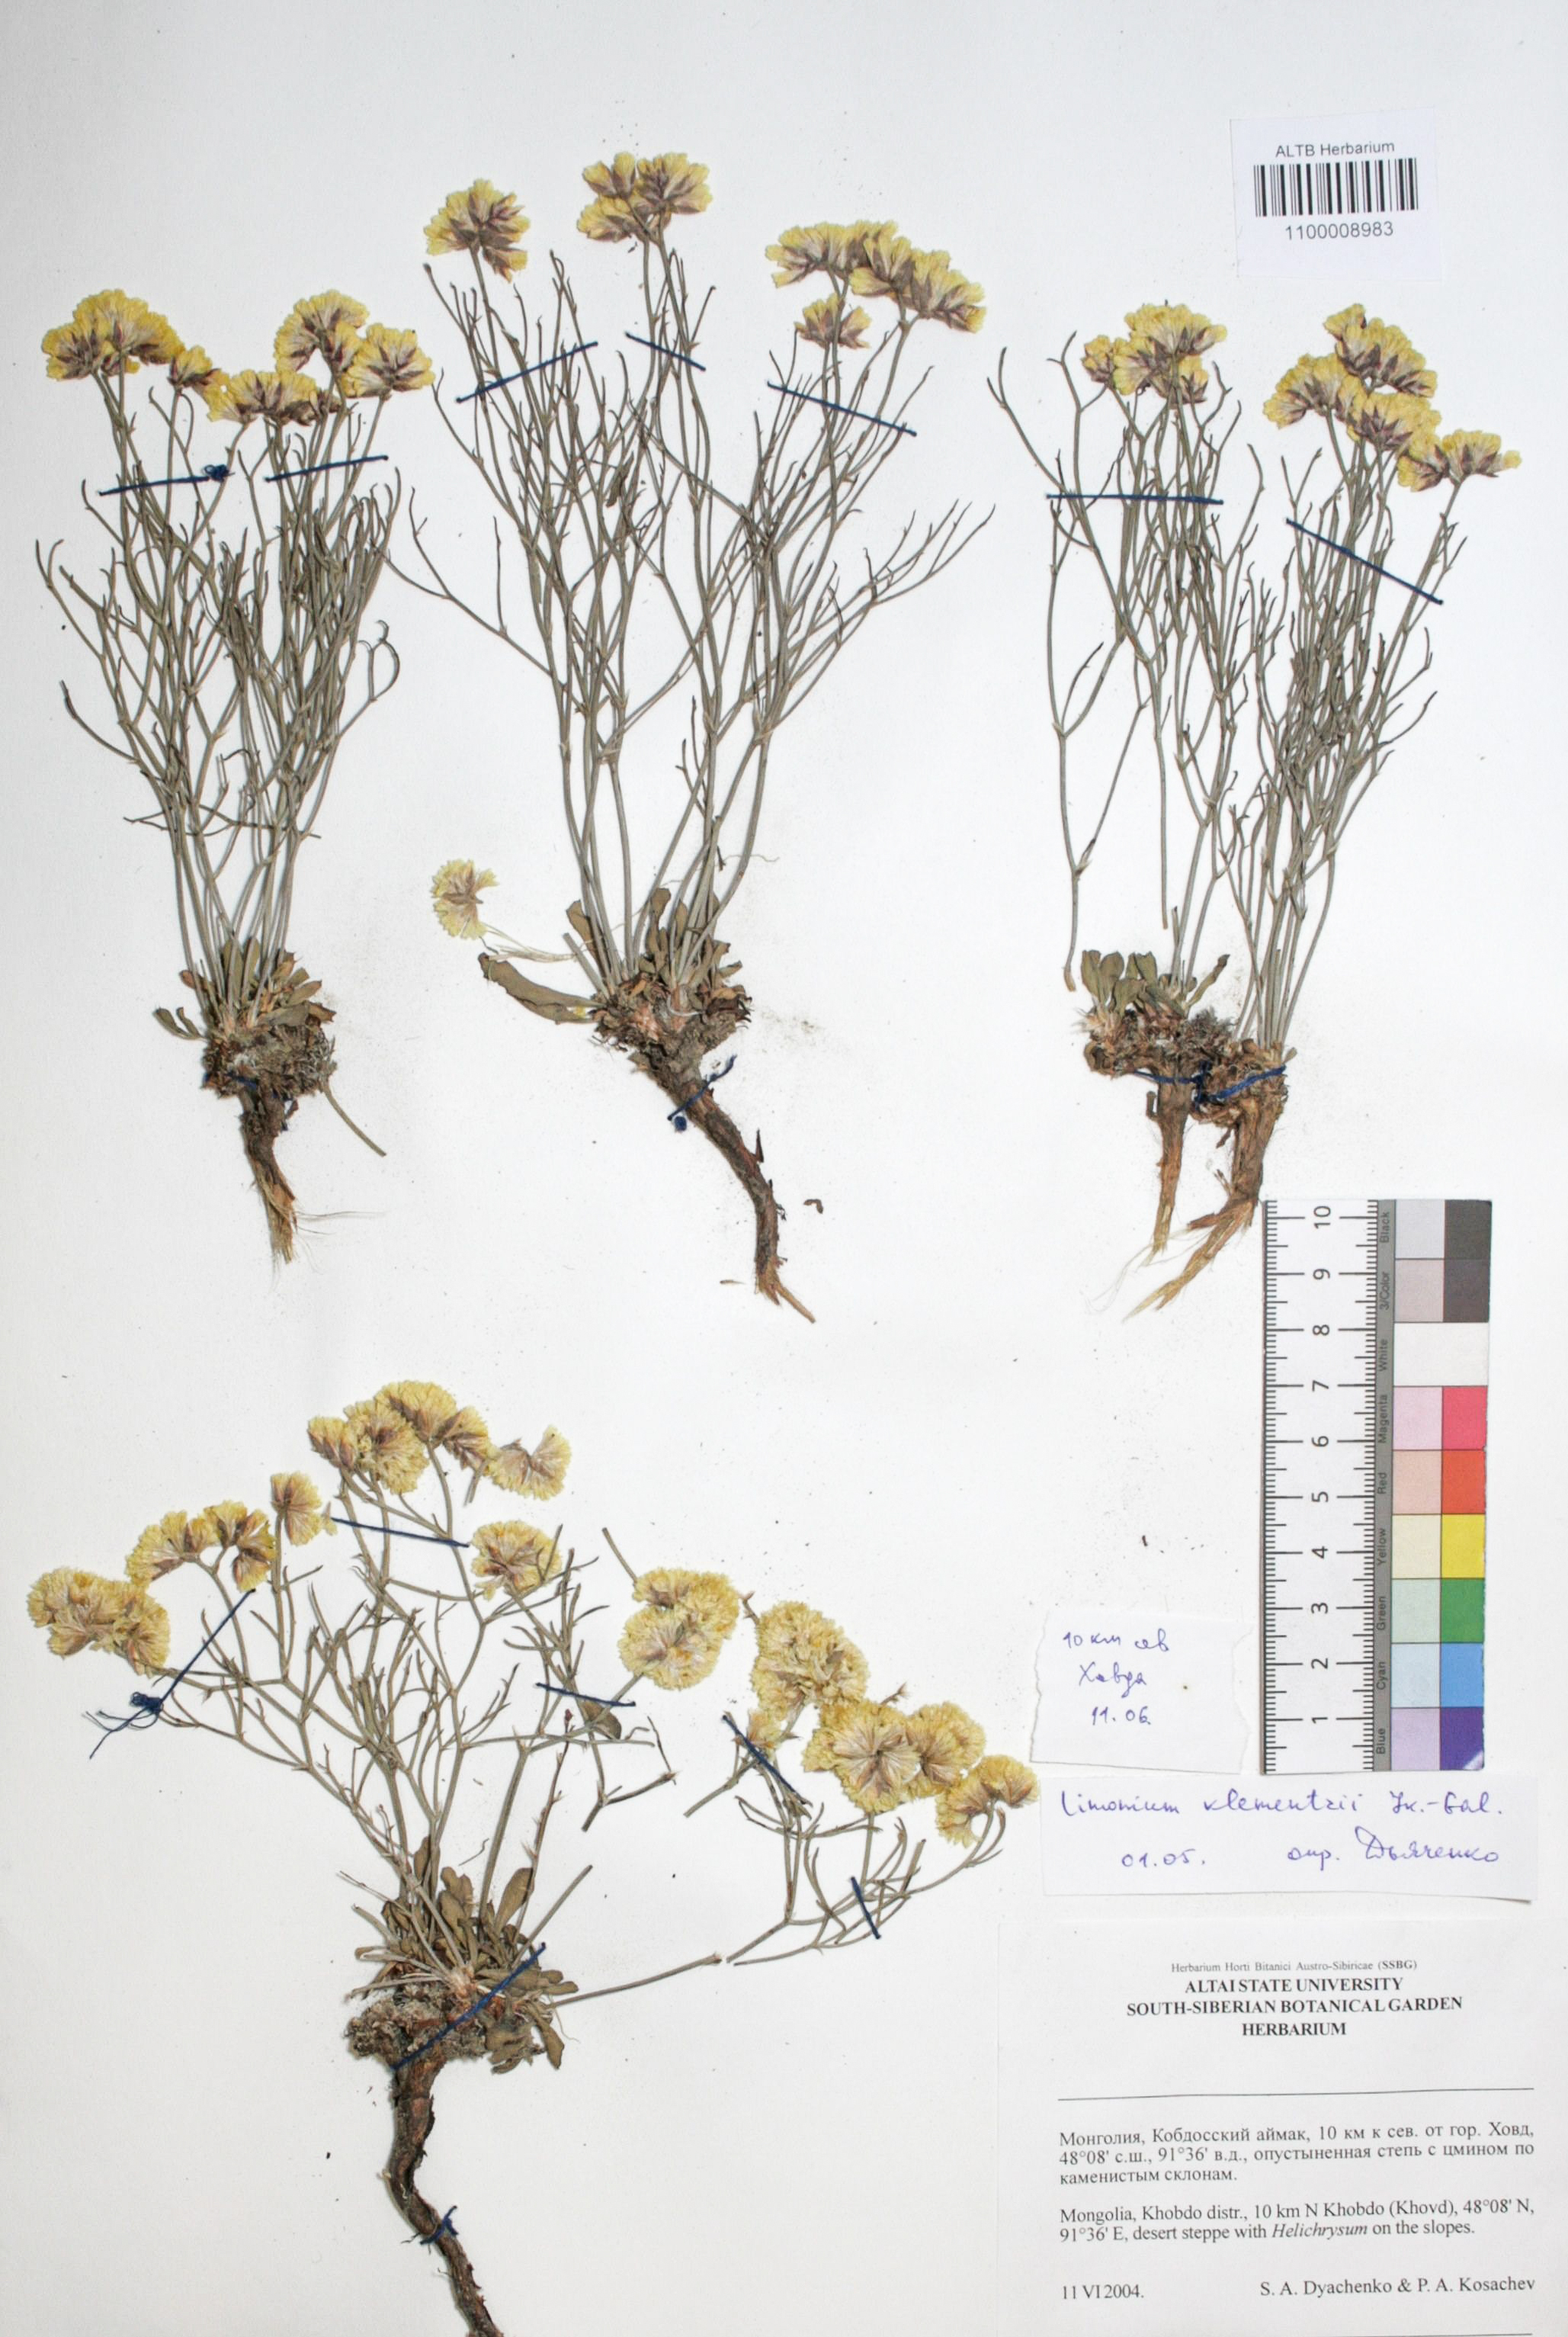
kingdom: Plantae
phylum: Tracheophyta
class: Magnoliopsida
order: Caryophyllales
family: Plumbaginaceae
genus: Limonium
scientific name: Limonium gmelini
